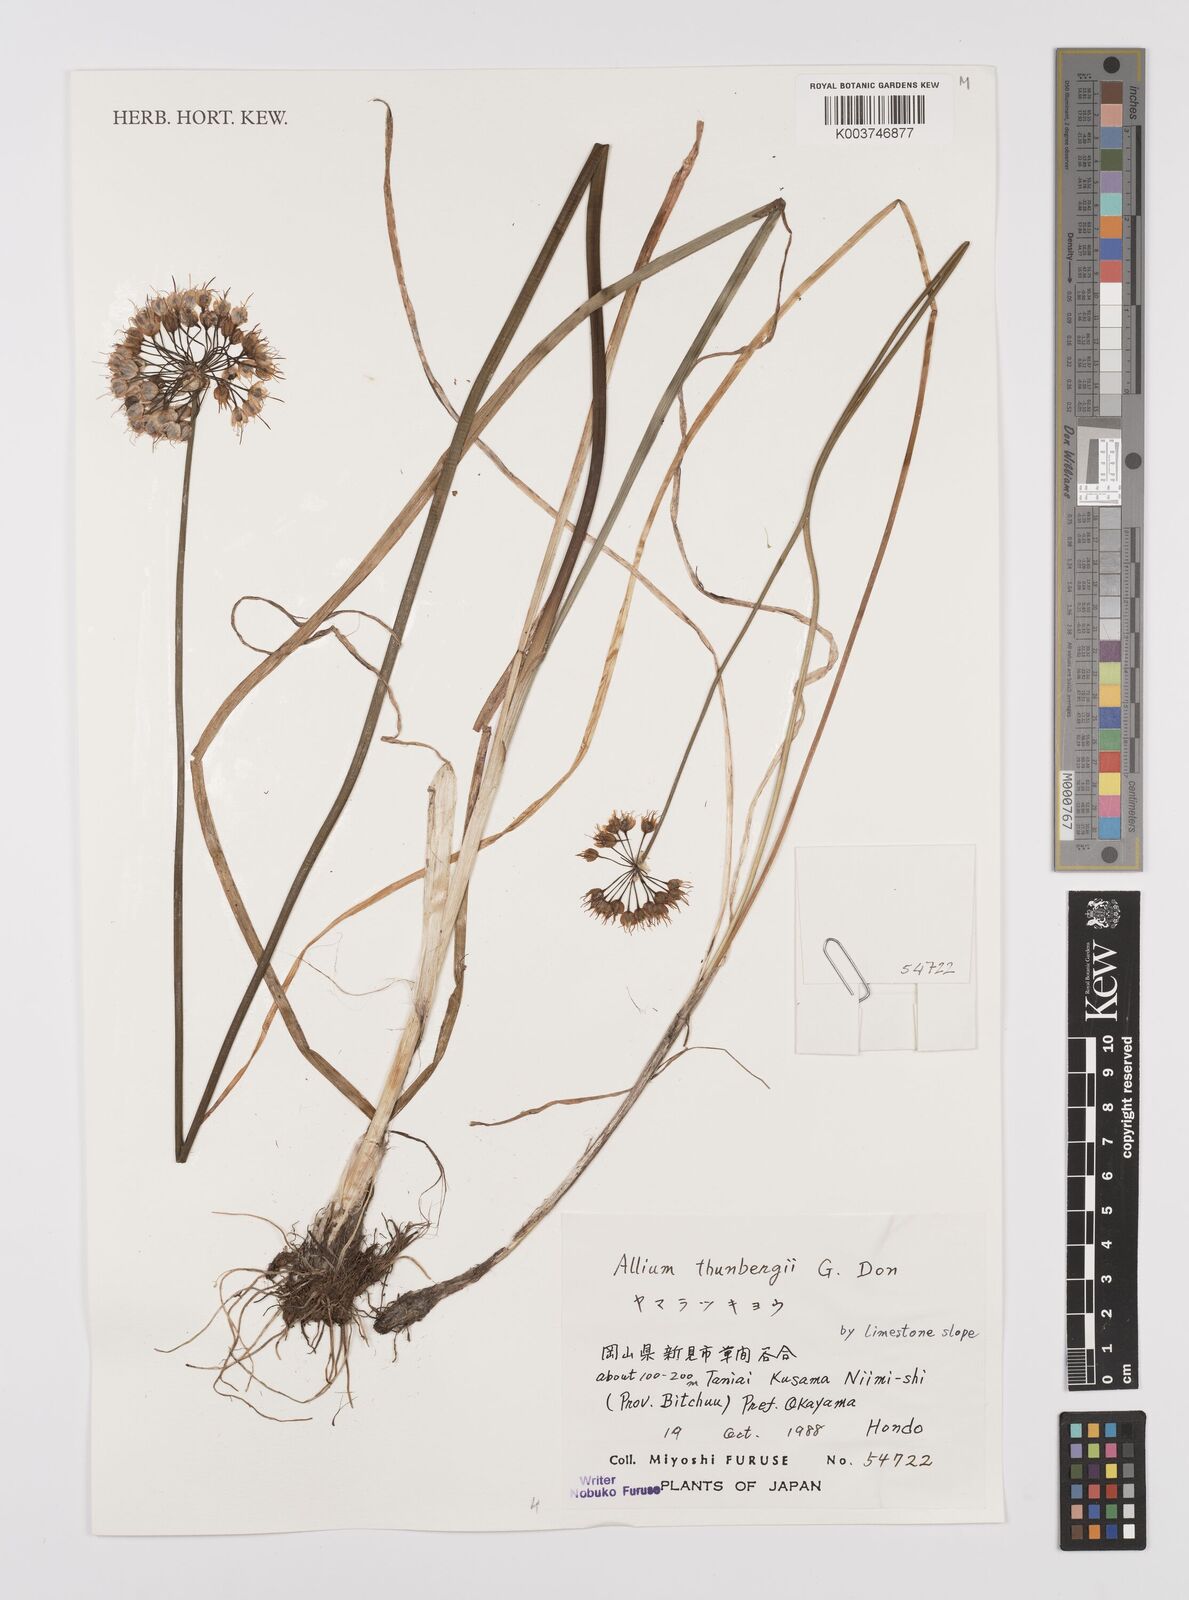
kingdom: Plantae
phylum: Tracheophyta
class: Liliopsida
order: Asparagales
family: Amaryllidaceae
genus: Allium
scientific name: Allium thunbergii
